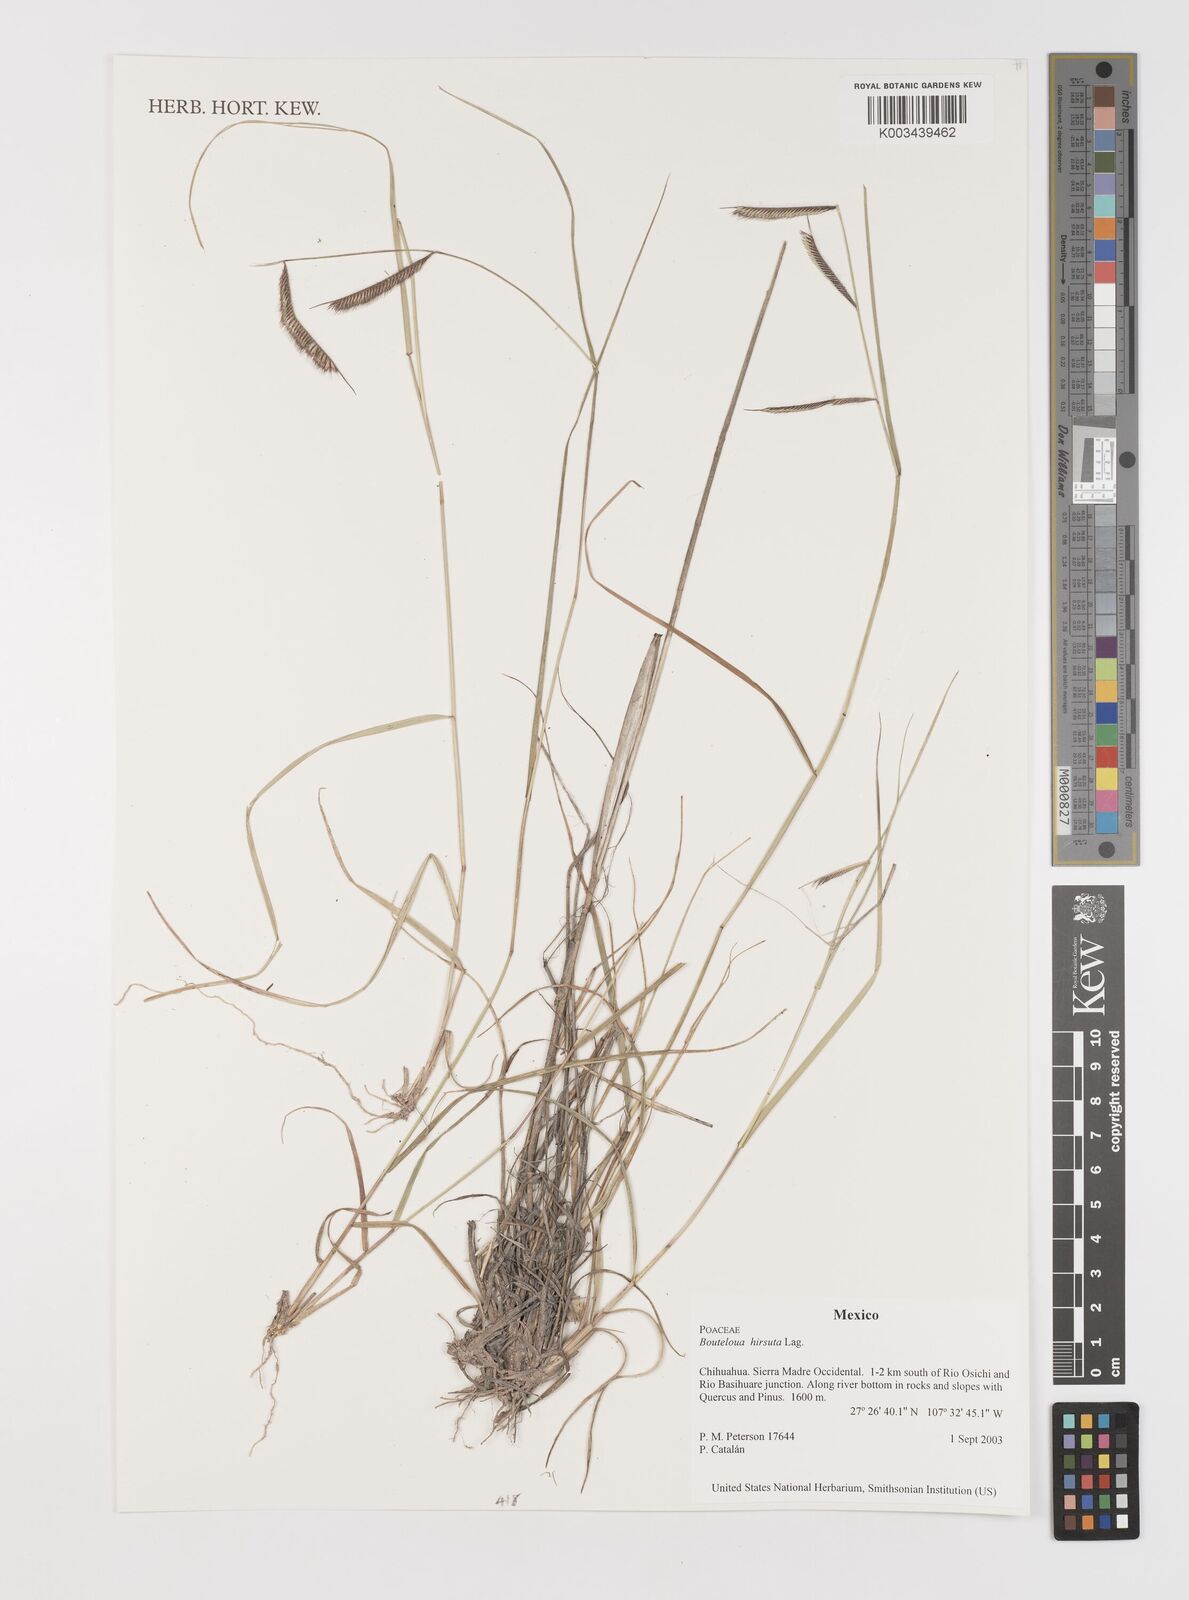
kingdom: Plantae
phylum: Tracheophyta
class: Liliopsida
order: Poales
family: Poaceae
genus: Bouteloua
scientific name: Bouteloua hirsuta
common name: Hairy grama
